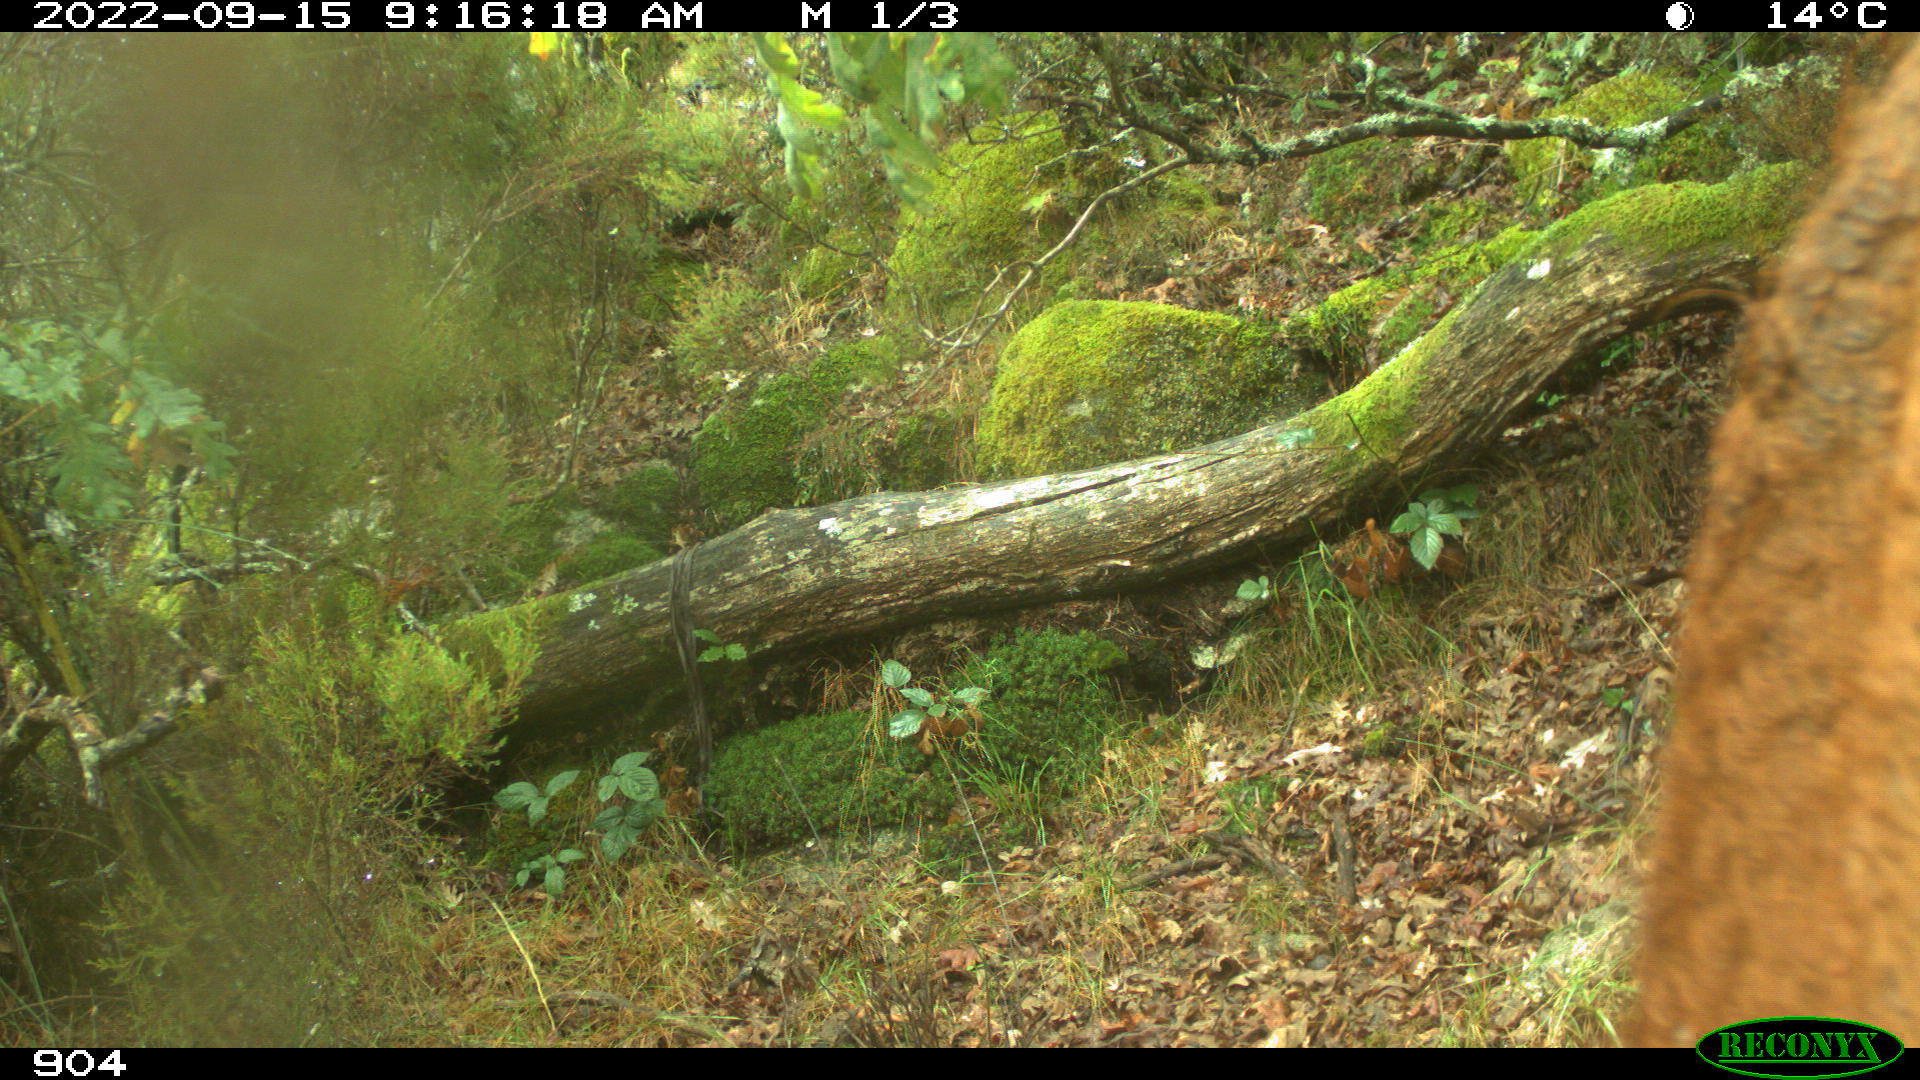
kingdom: Animalia
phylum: Chordata
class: Mammalia
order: Artiodactyla
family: Bovidae
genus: Bos
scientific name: Bos taurus
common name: Domesticated cattle
